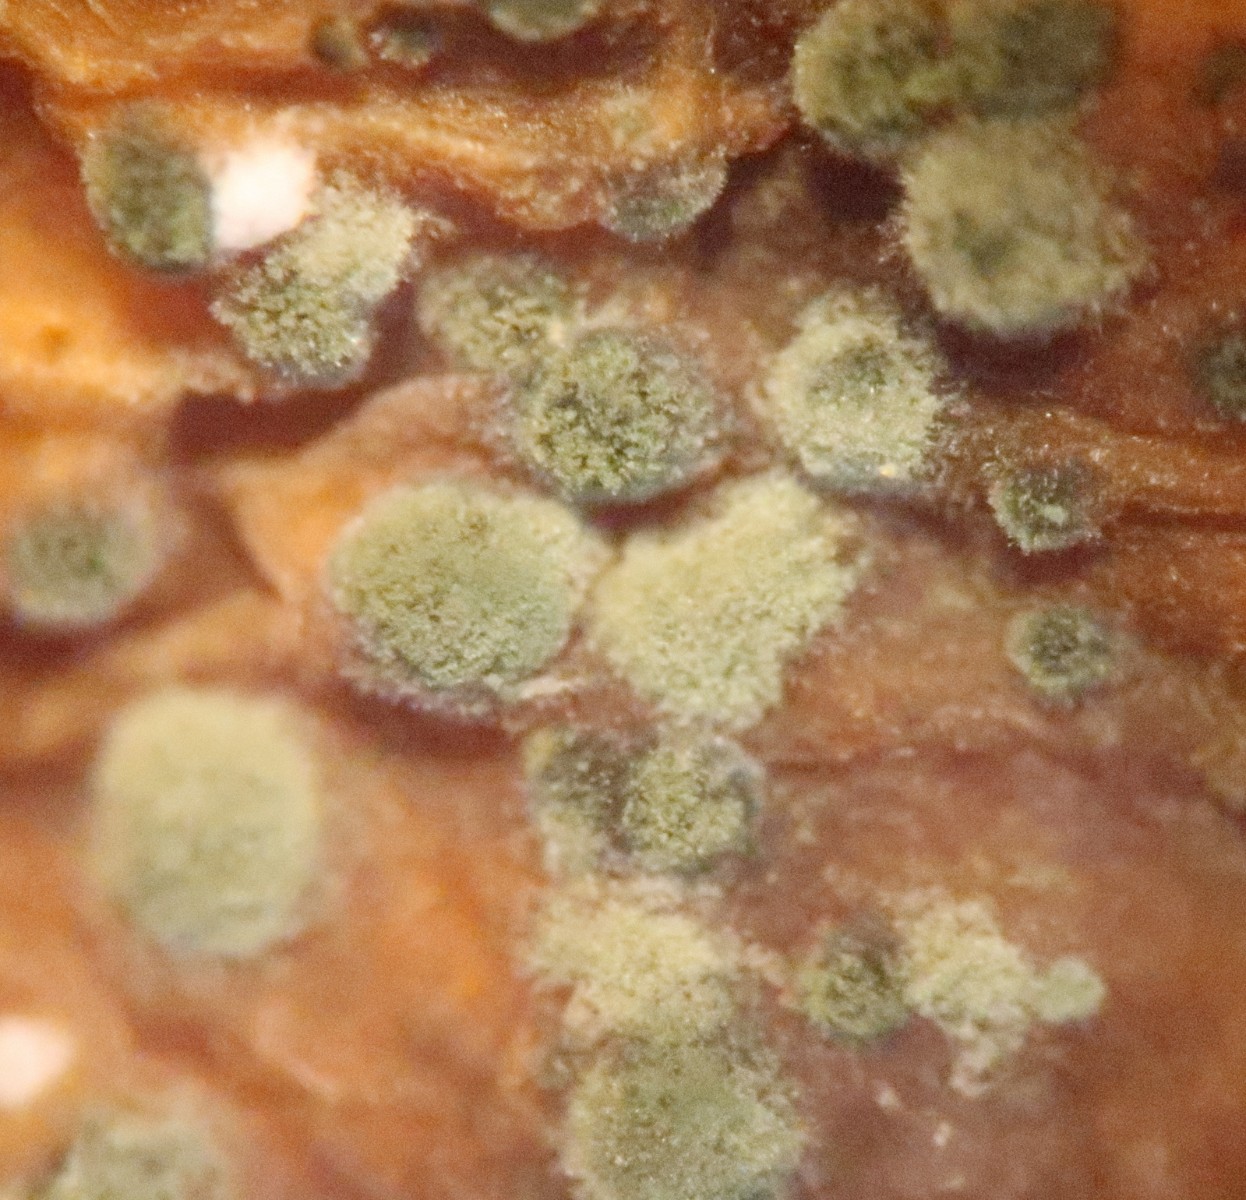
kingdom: Fungi
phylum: Ascomycota
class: Dothideomycetes
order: Capnodiales
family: Cladosporiaceae
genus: Cladosporium
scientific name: Cladosporium
